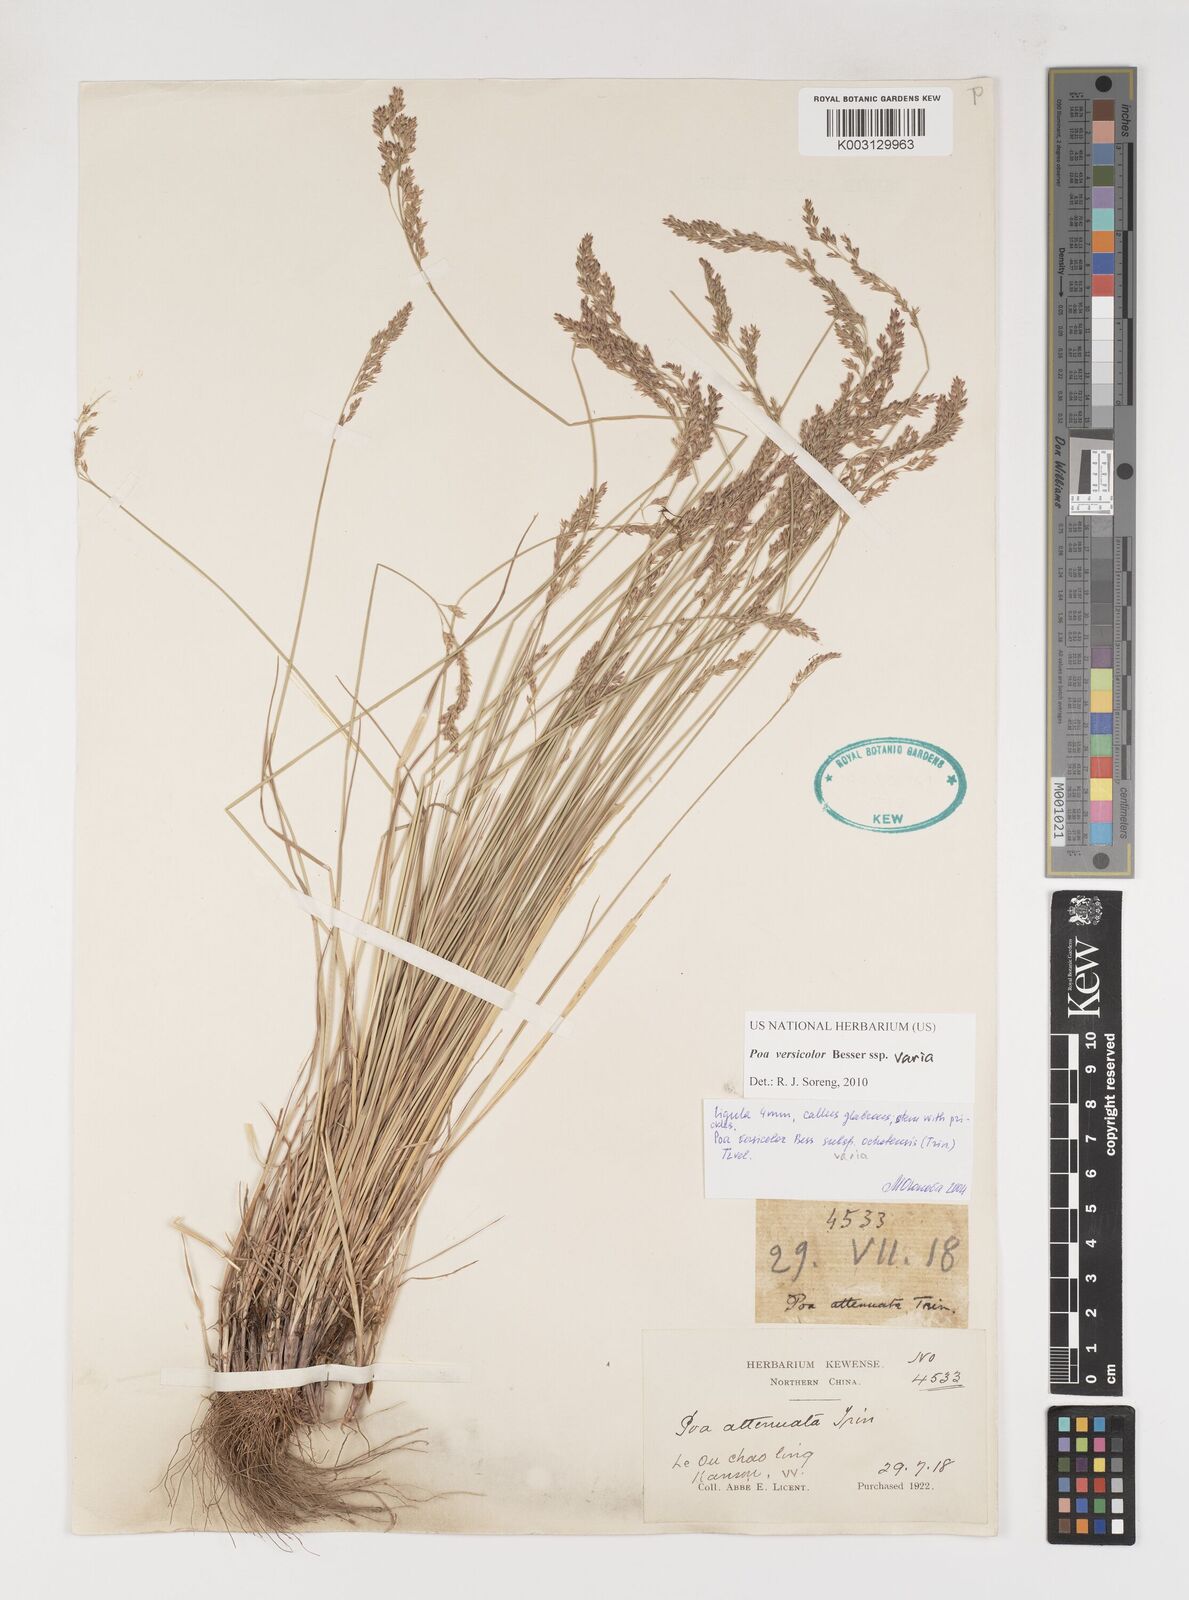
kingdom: Plantae
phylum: Tracheophyta
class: Liliopsida
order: Poales
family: Poaceae
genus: Poa
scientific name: Poa versicolor
